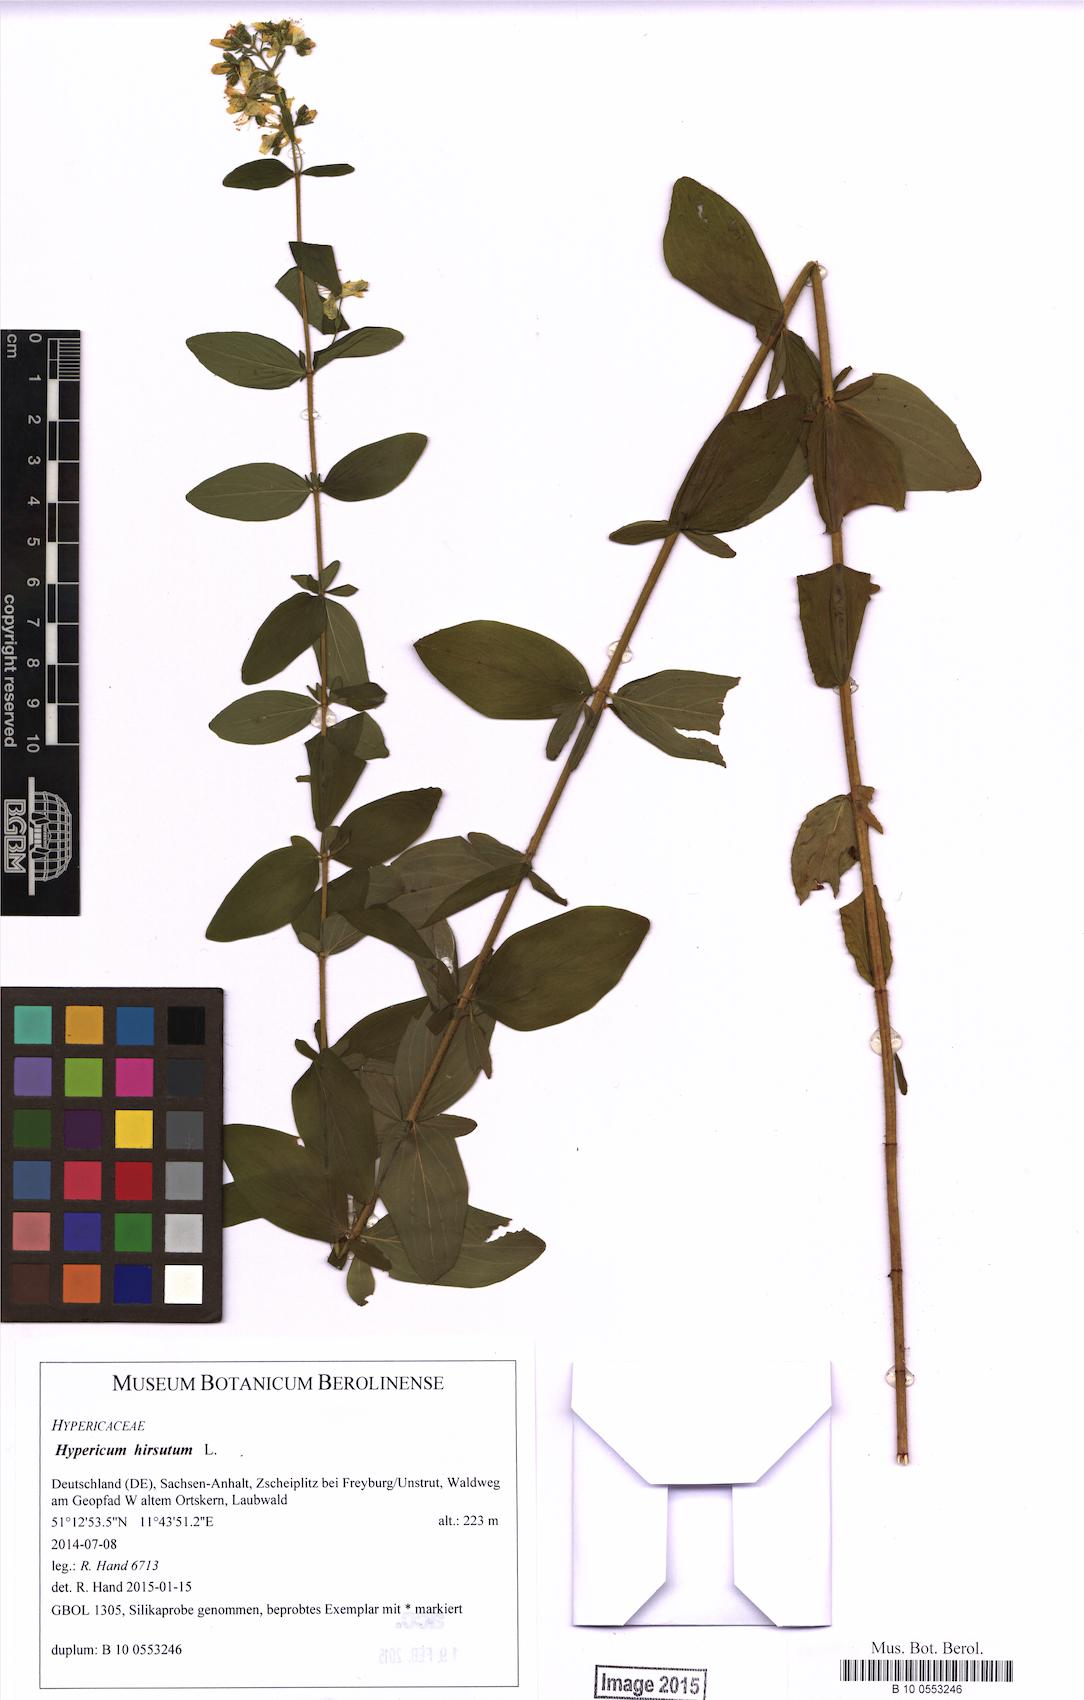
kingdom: Plantae
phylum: Tracheophyta
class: Magnoliopsida
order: Malpighiales
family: Hypericaceae
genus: Hypericum
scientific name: Hypericum hirsutum
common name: Hairy st. john's-wort
